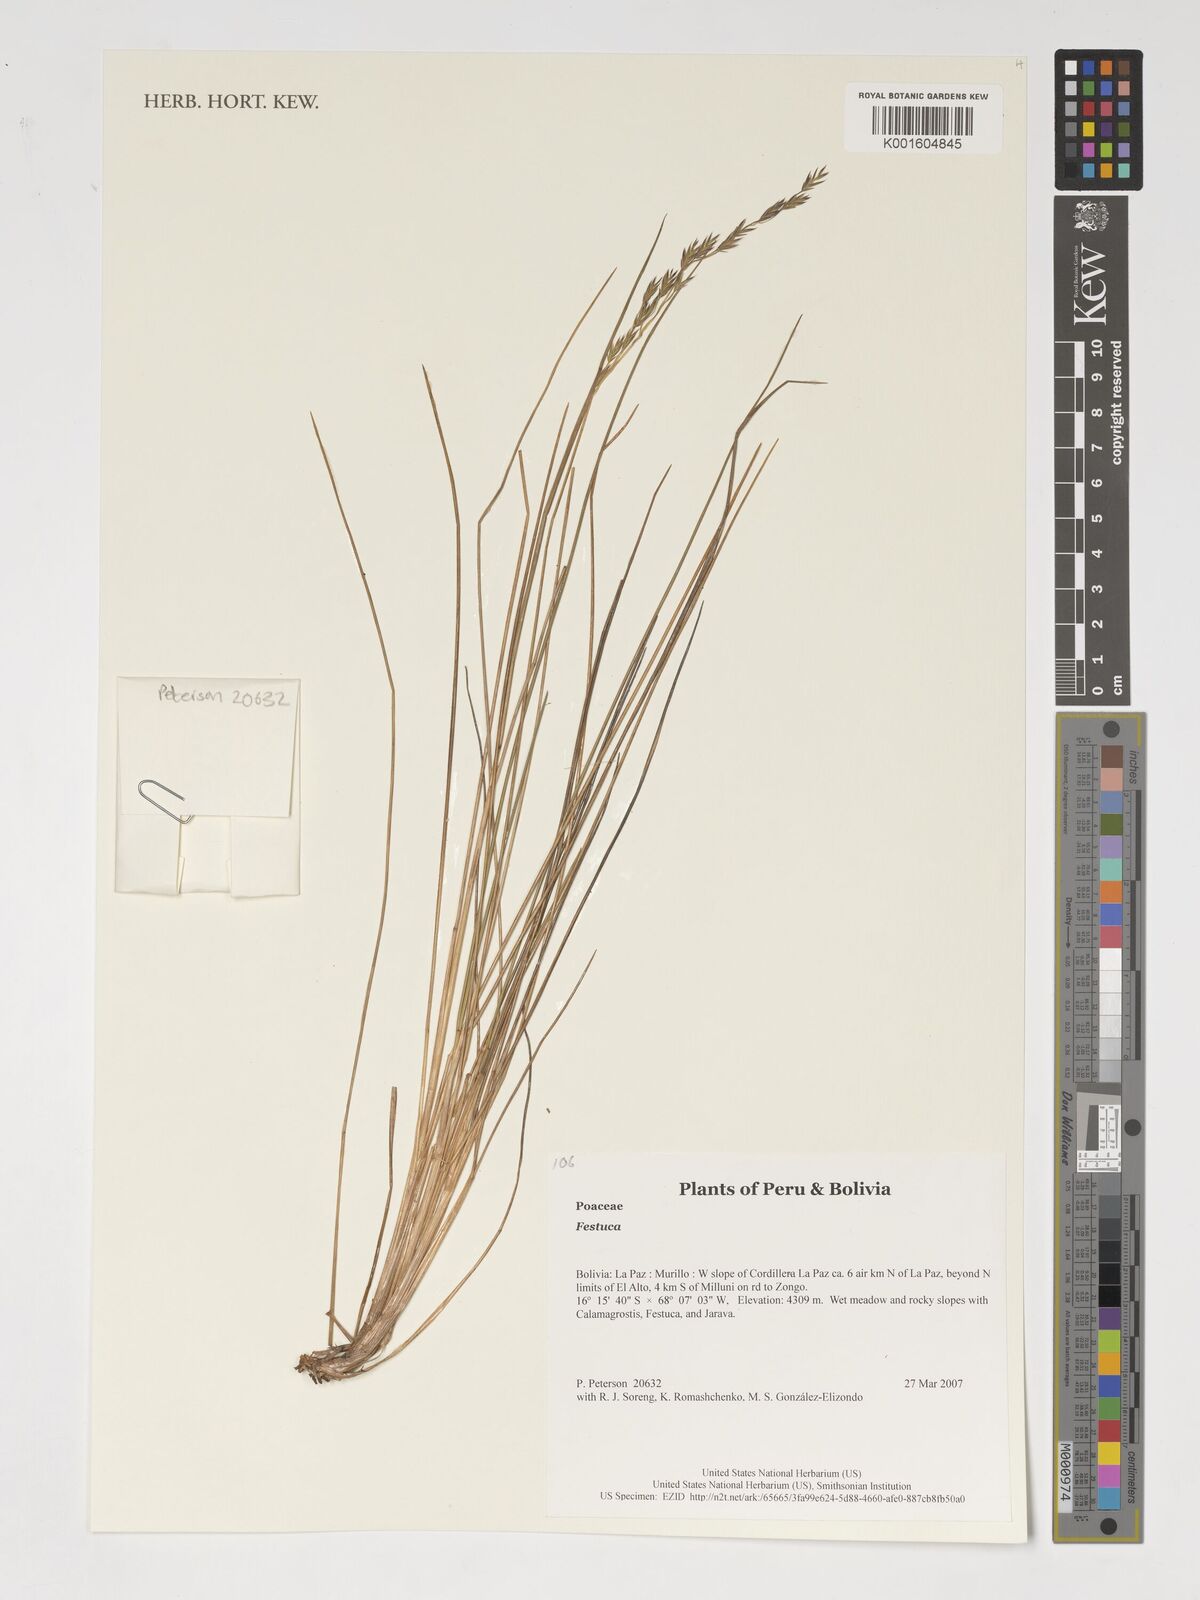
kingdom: Plantae
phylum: Tracheophyta
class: Liliopsida
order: Poales
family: Poaceae
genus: Festuca
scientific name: Festuca
